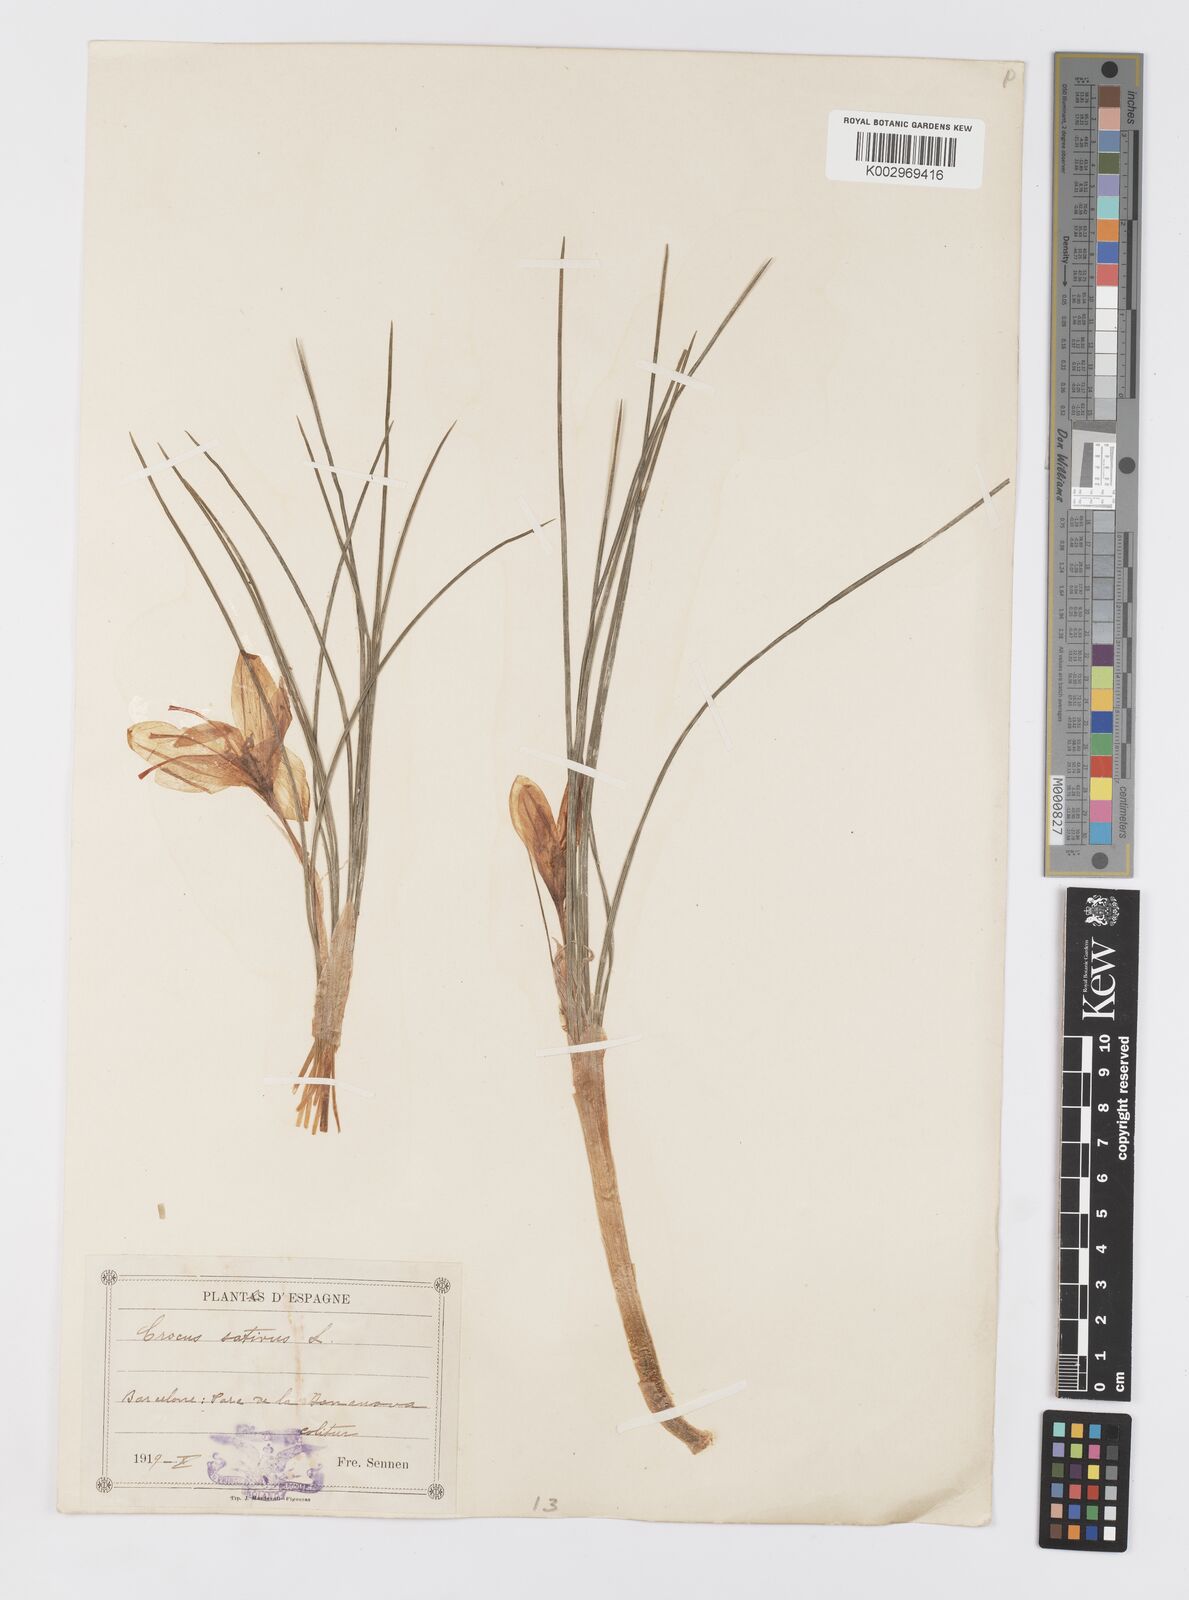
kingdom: Plantae
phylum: Tracheophyta
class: Liliopsida
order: Asparagales
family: Iridaceae
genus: Crocus
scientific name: Crocus sativus
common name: Saffron crocus
